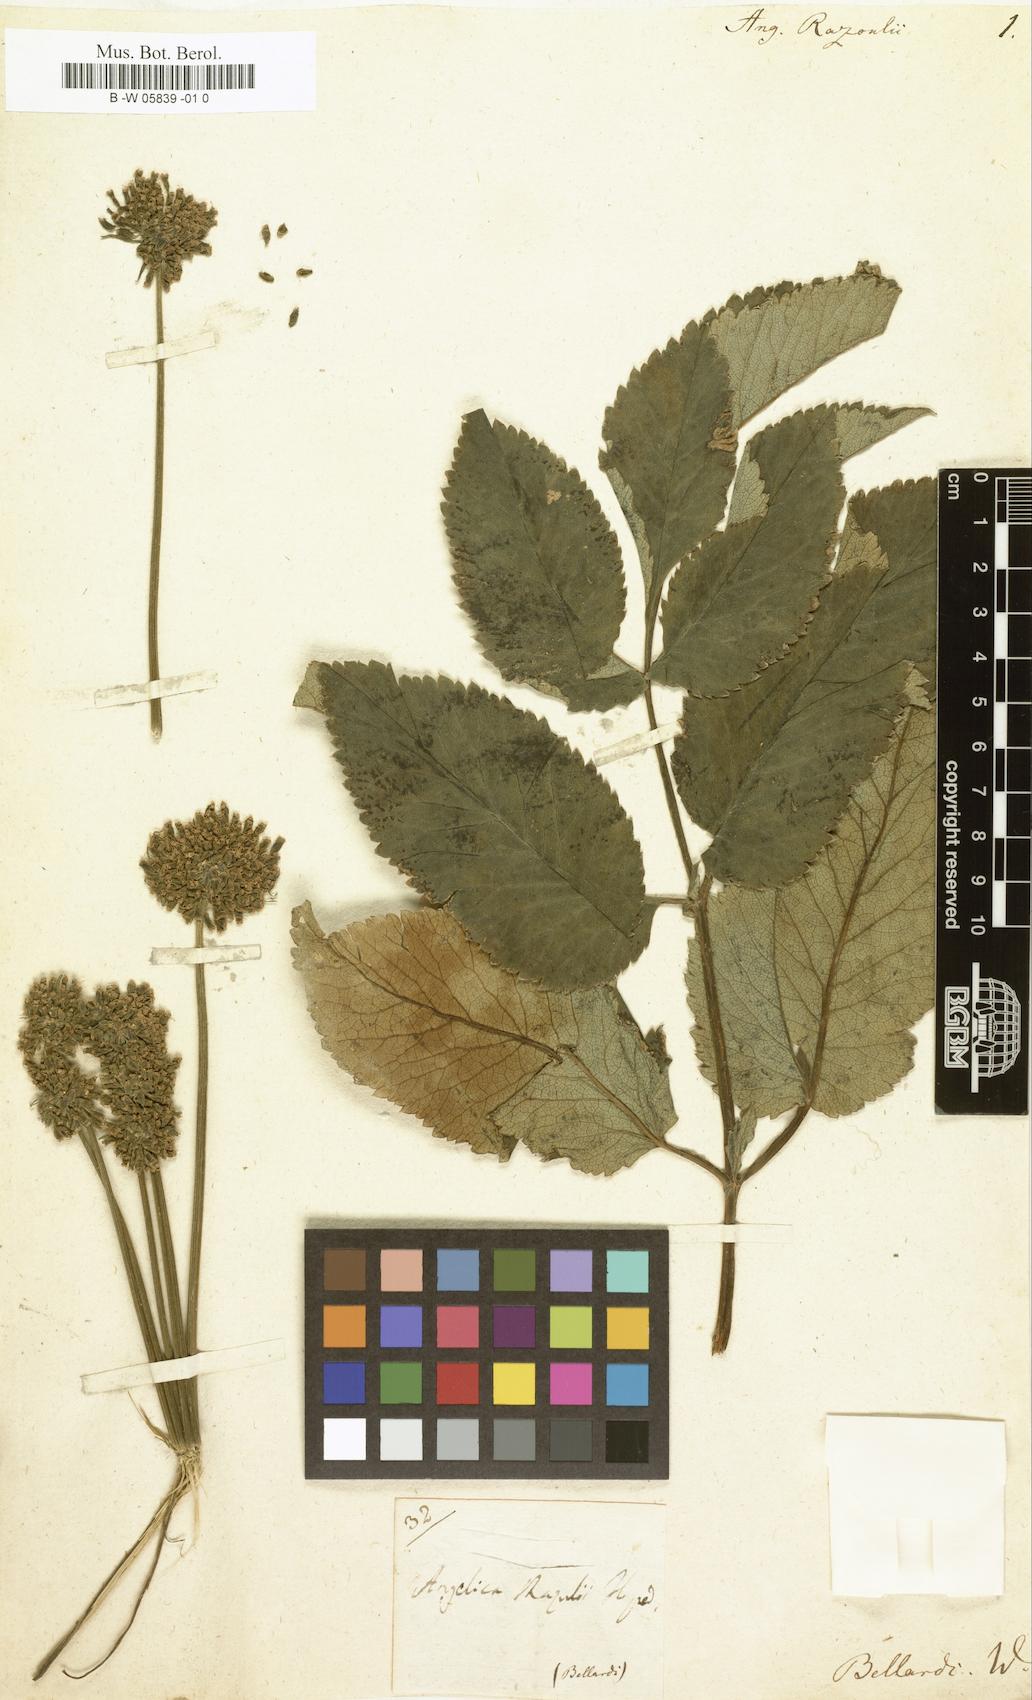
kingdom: Plantae
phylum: Tracheophyta
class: Magnoliopsida
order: Apiales
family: Apiaceae
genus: Angelica
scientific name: Angelica razulii
